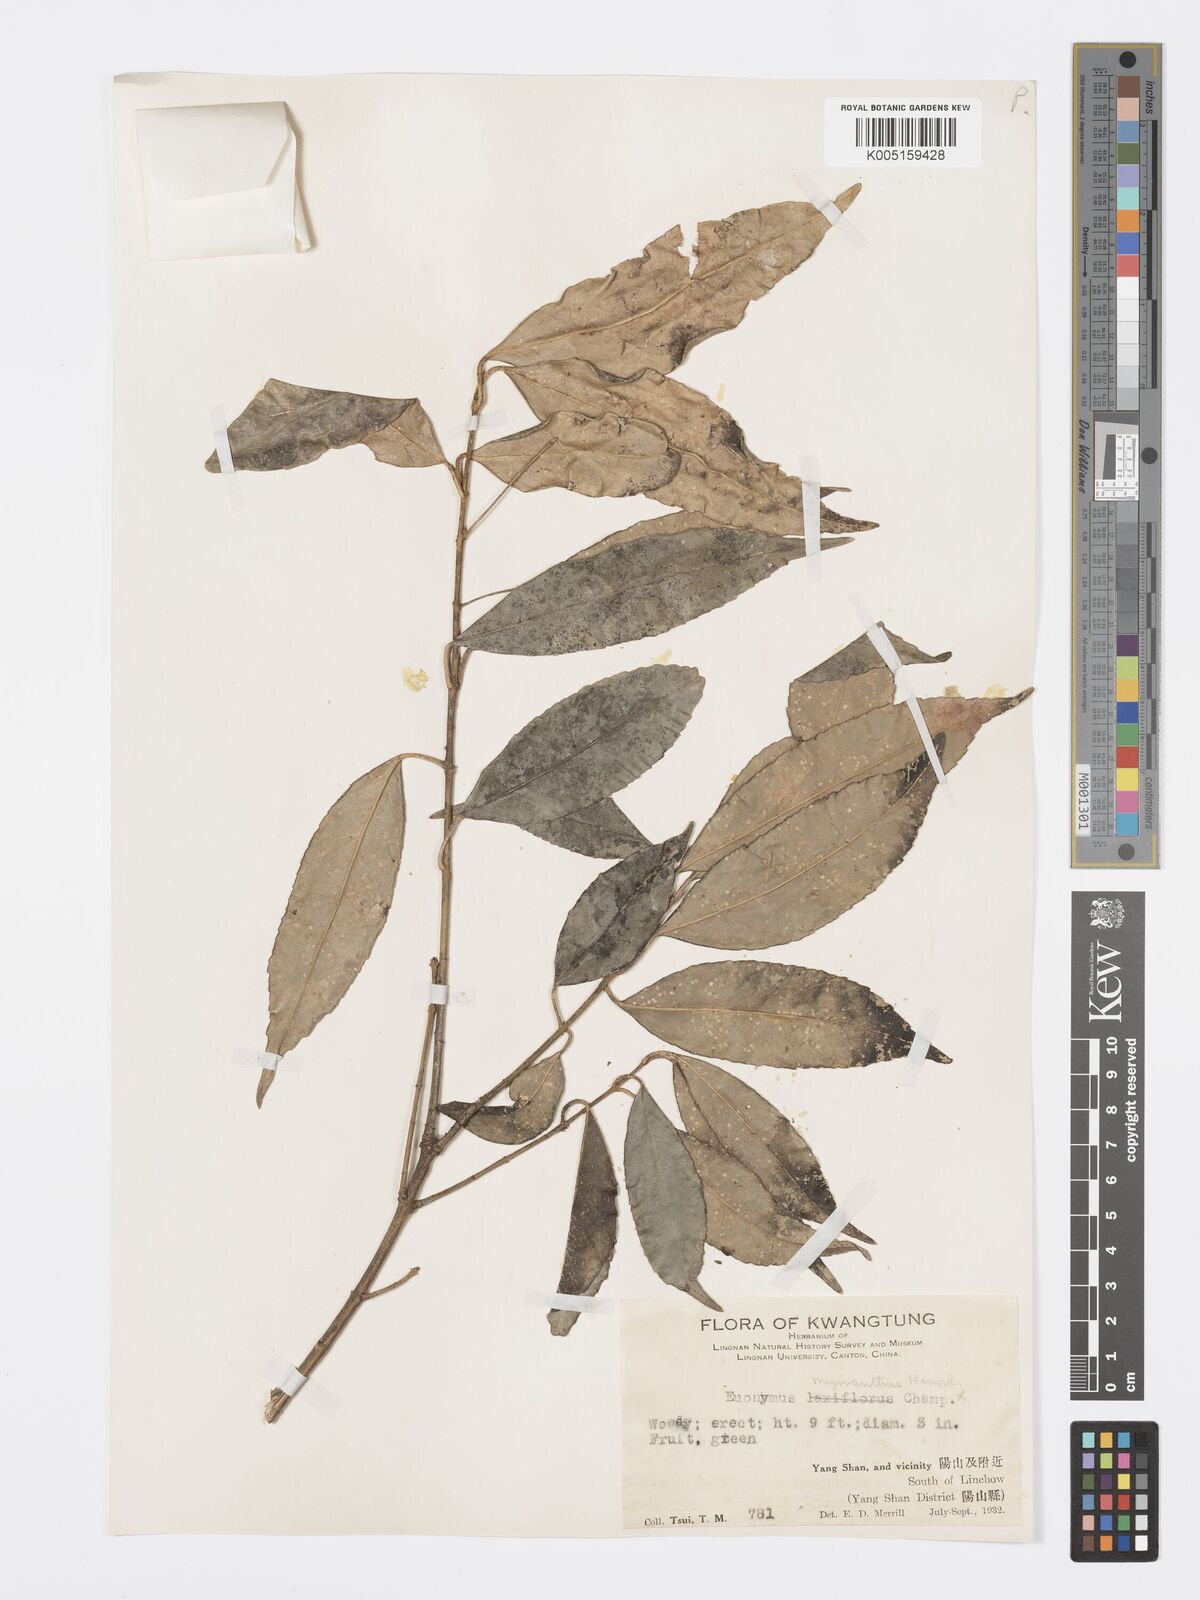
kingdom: Plantae
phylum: Tracheophyta
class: Magnoliopsida
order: Celastrales
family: Celastraceae
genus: Euonymus
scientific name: Euonymus myrianthus
